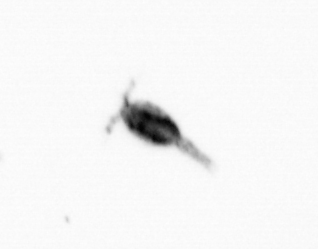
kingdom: Animalia
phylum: Arthropoda
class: Copepoda
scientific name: Copepoda
